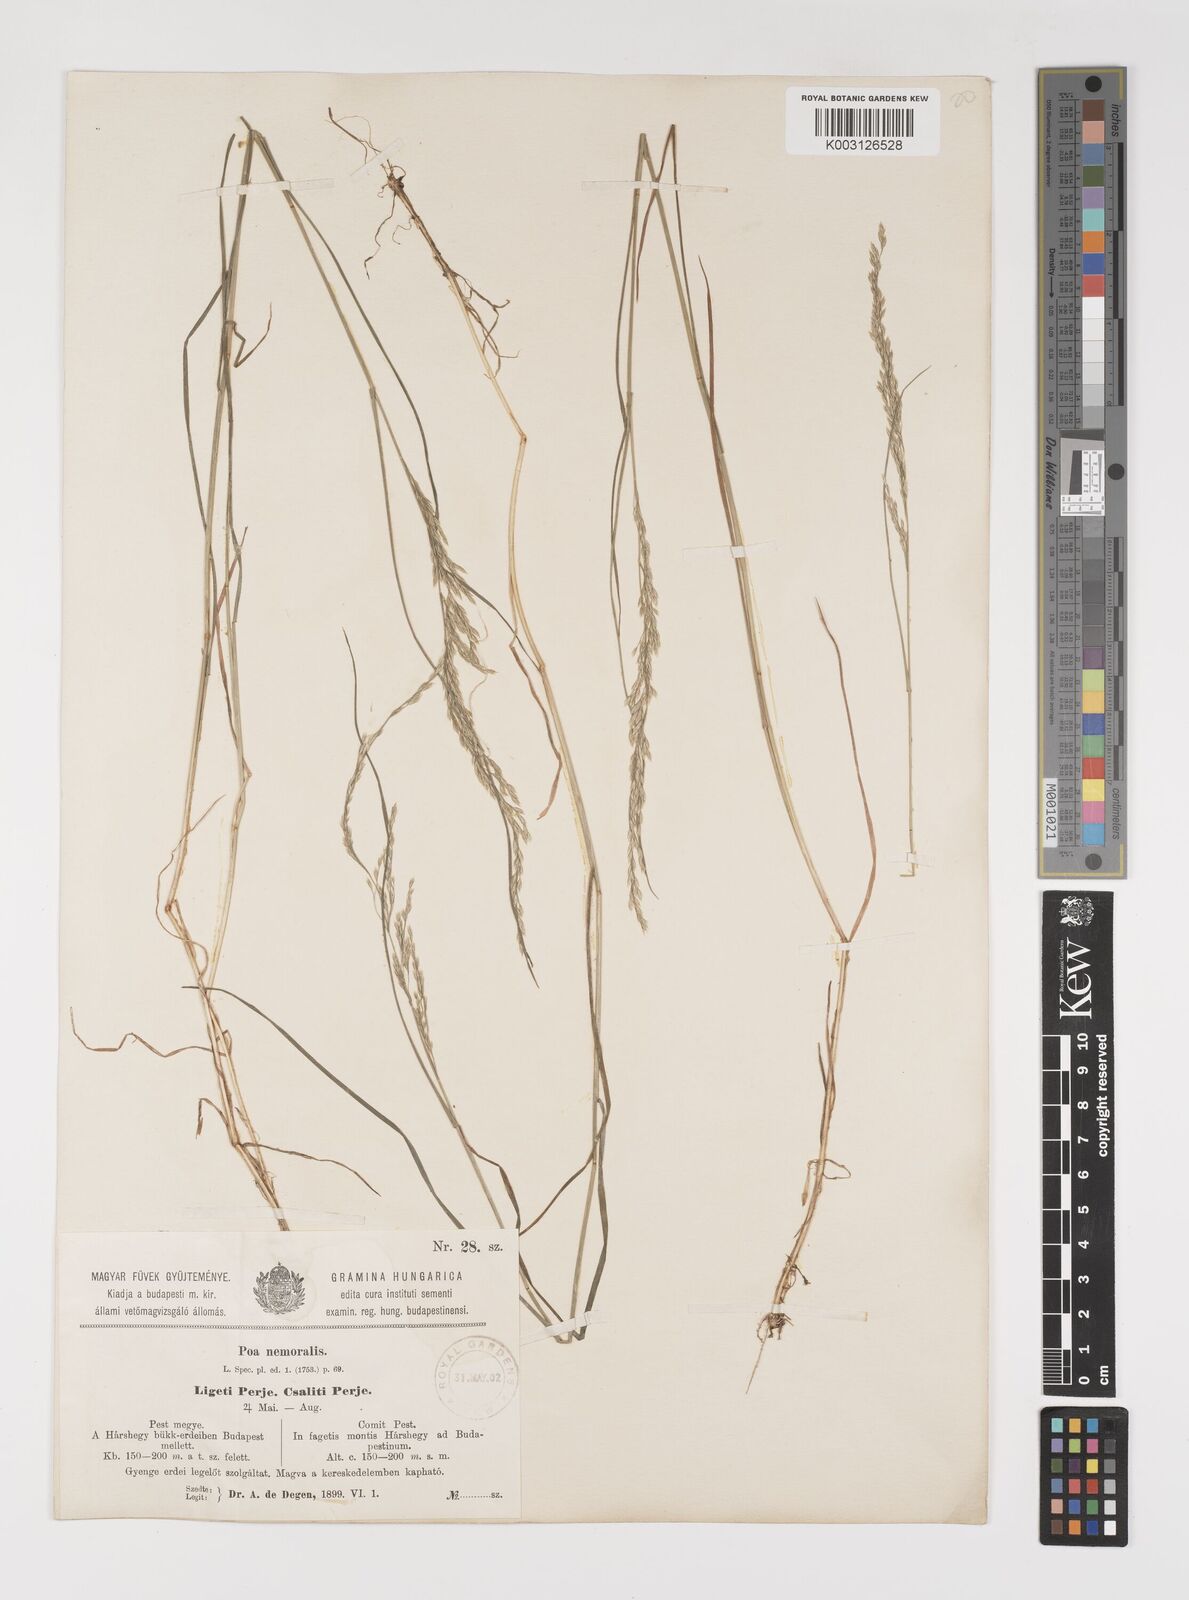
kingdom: Plantae
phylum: Tracheophyta
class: Liliopsida
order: Poales
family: Poaceae
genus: Poa
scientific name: Poa nemoralis
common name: Wood bluegrass
